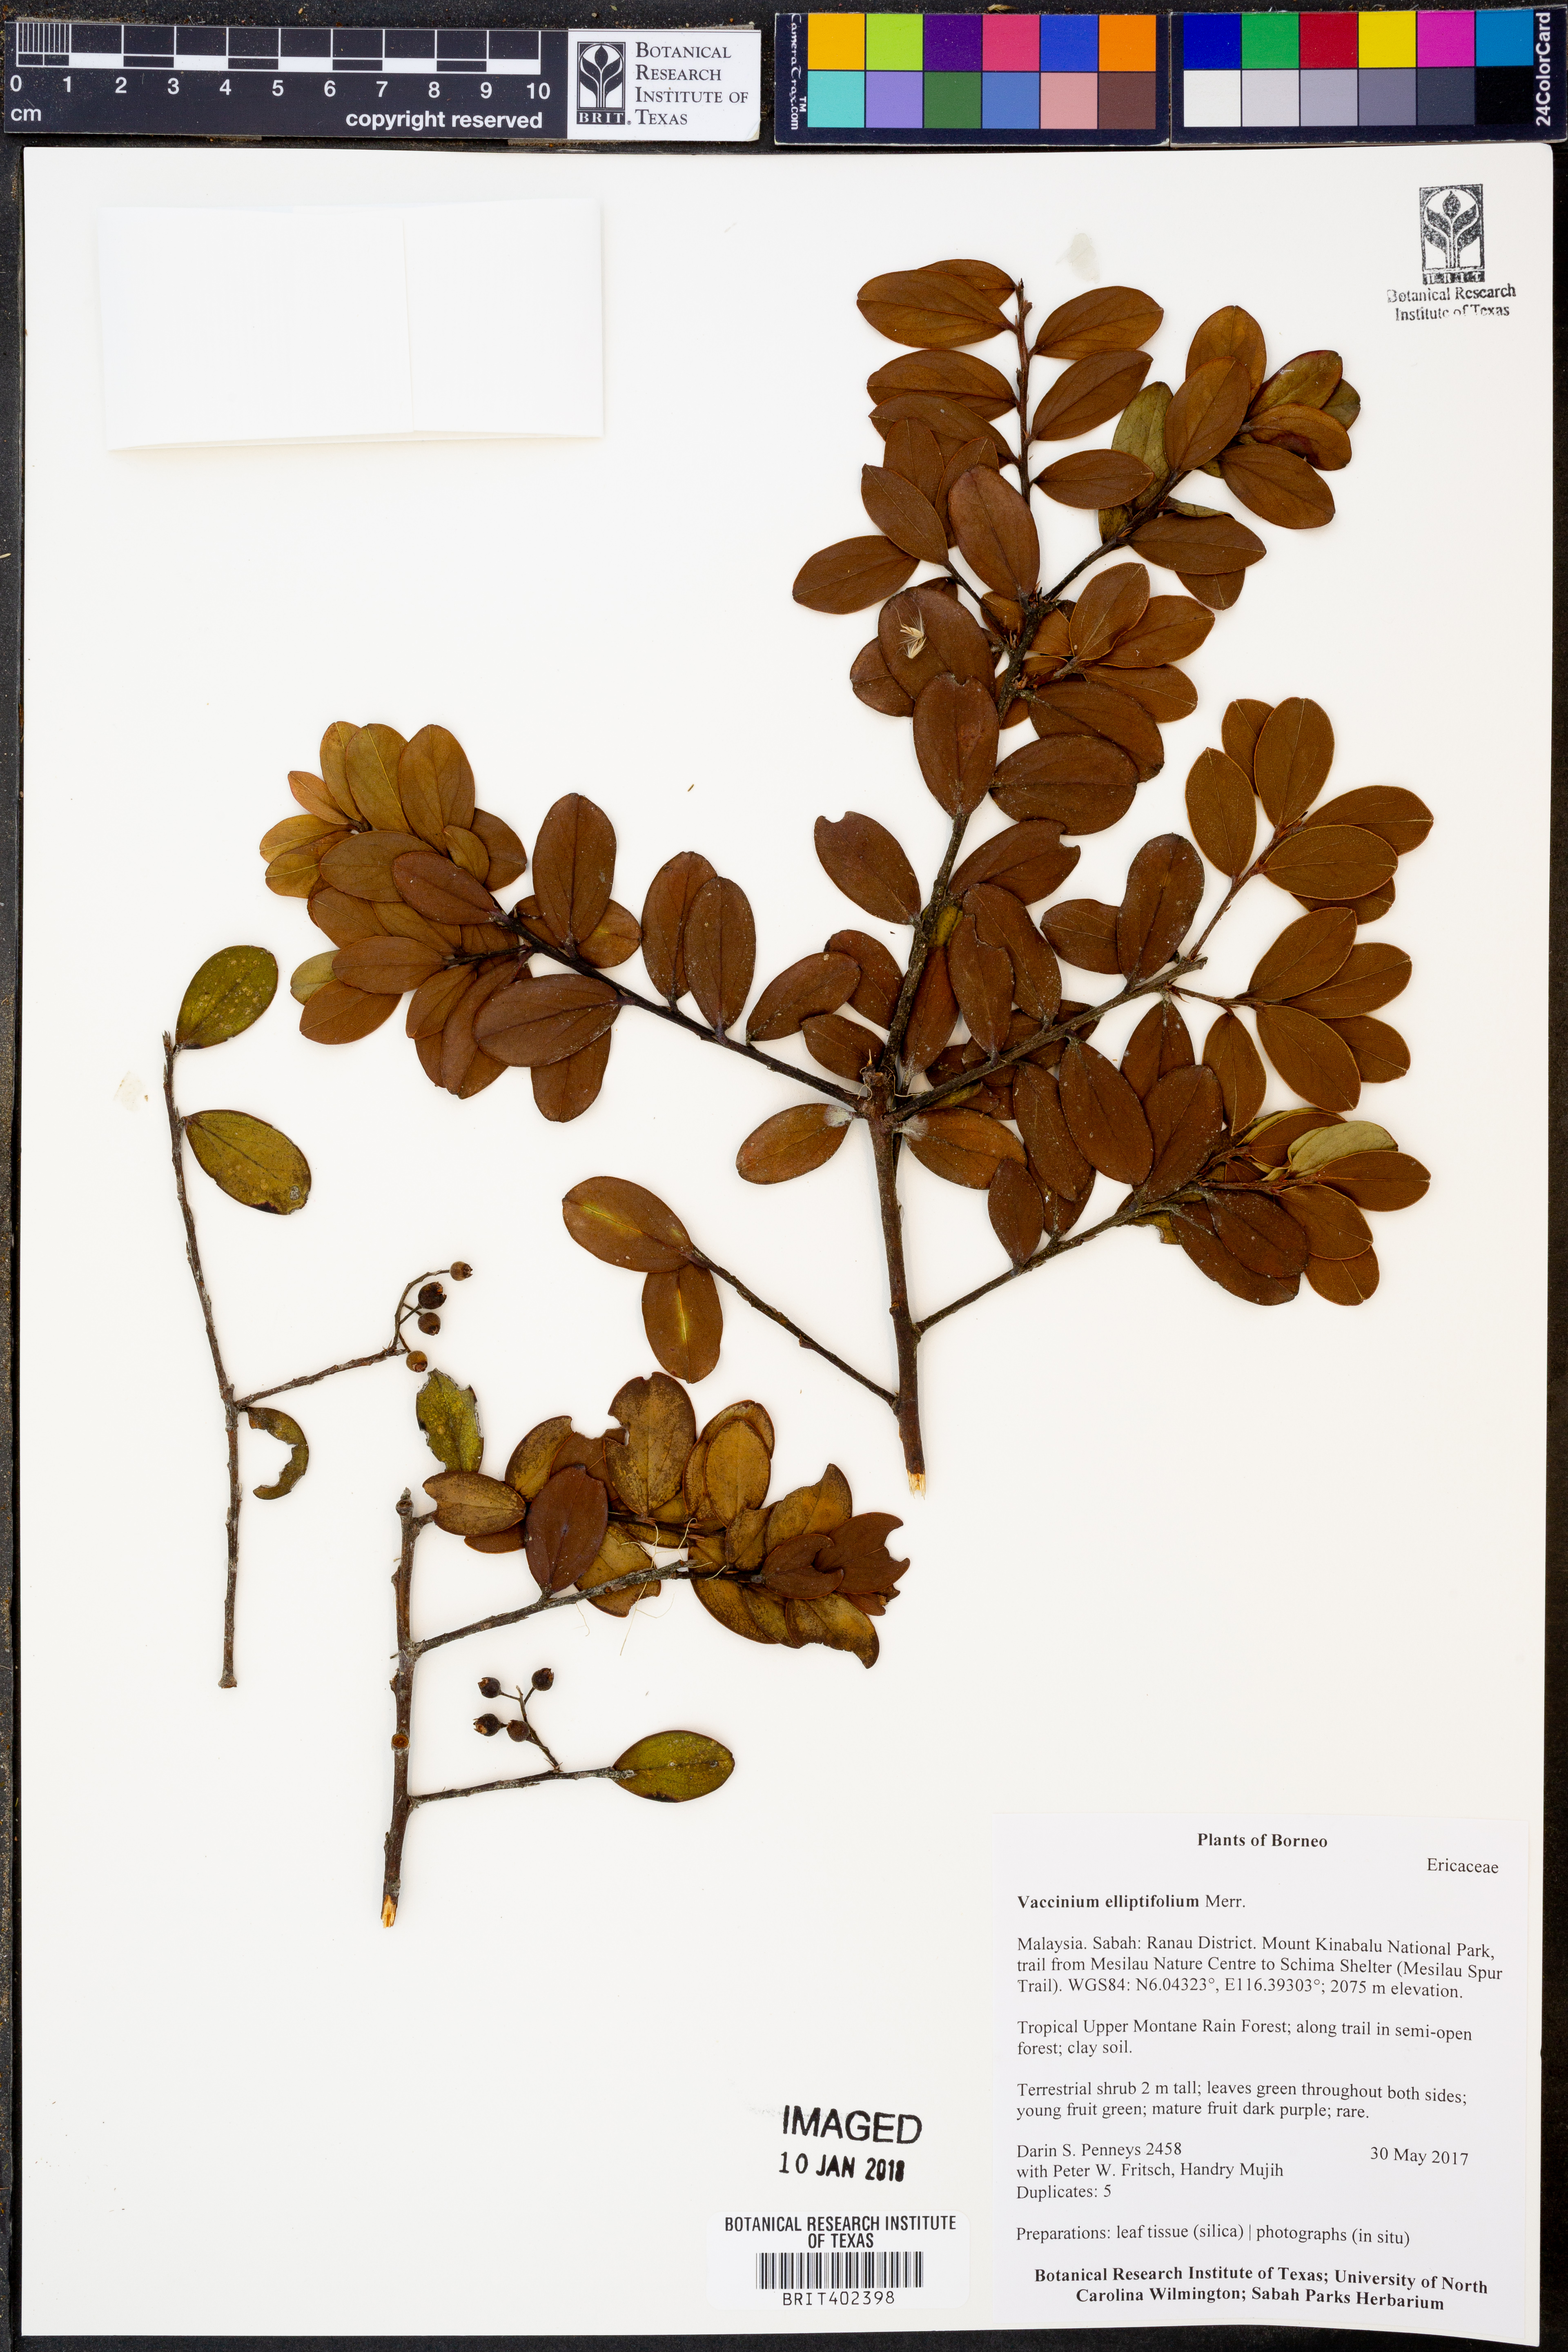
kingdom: Plantae
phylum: Tracheophyta
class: Magnoliopsida
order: Ericales
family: Ericaceae
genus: Vaccinium
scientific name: Vaccinium elliptifolium
